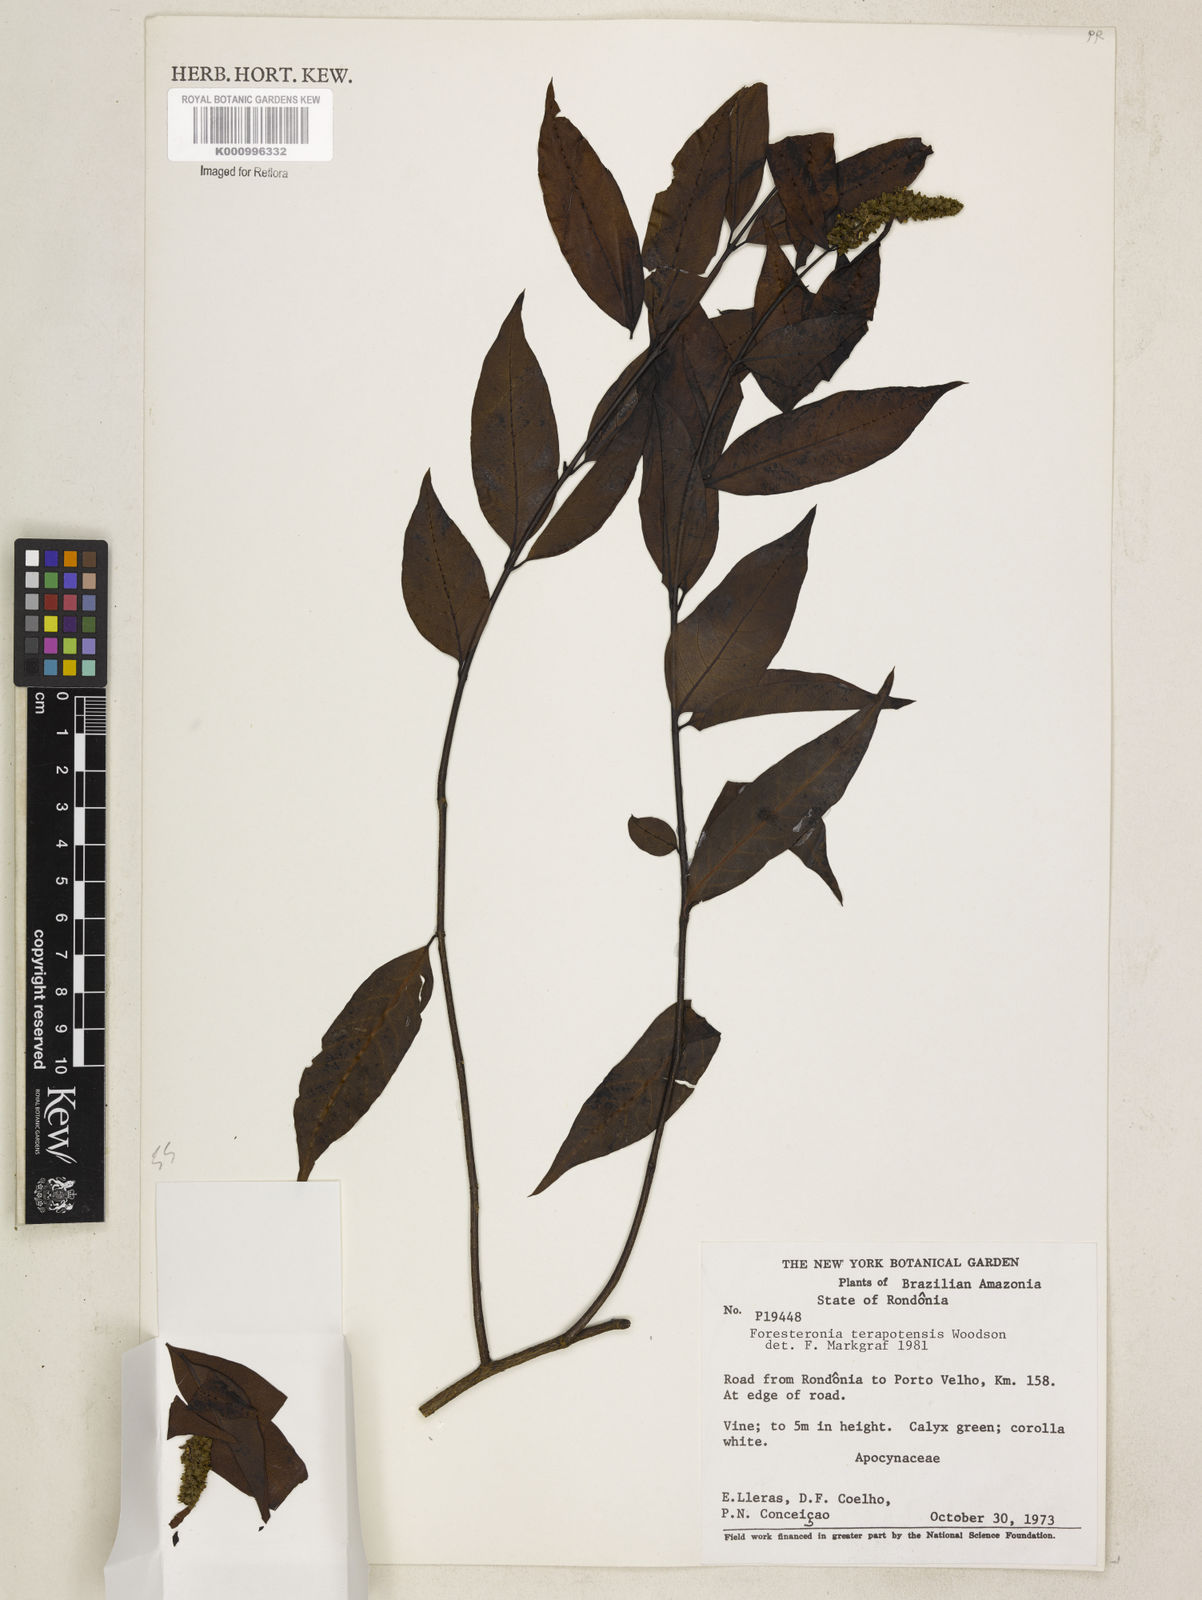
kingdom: Plantae
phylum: Tracheophyta
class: Magnoliopsida
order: Gentianales
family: Apocynaceae
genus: Forsteronia
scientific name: Forsteronia
